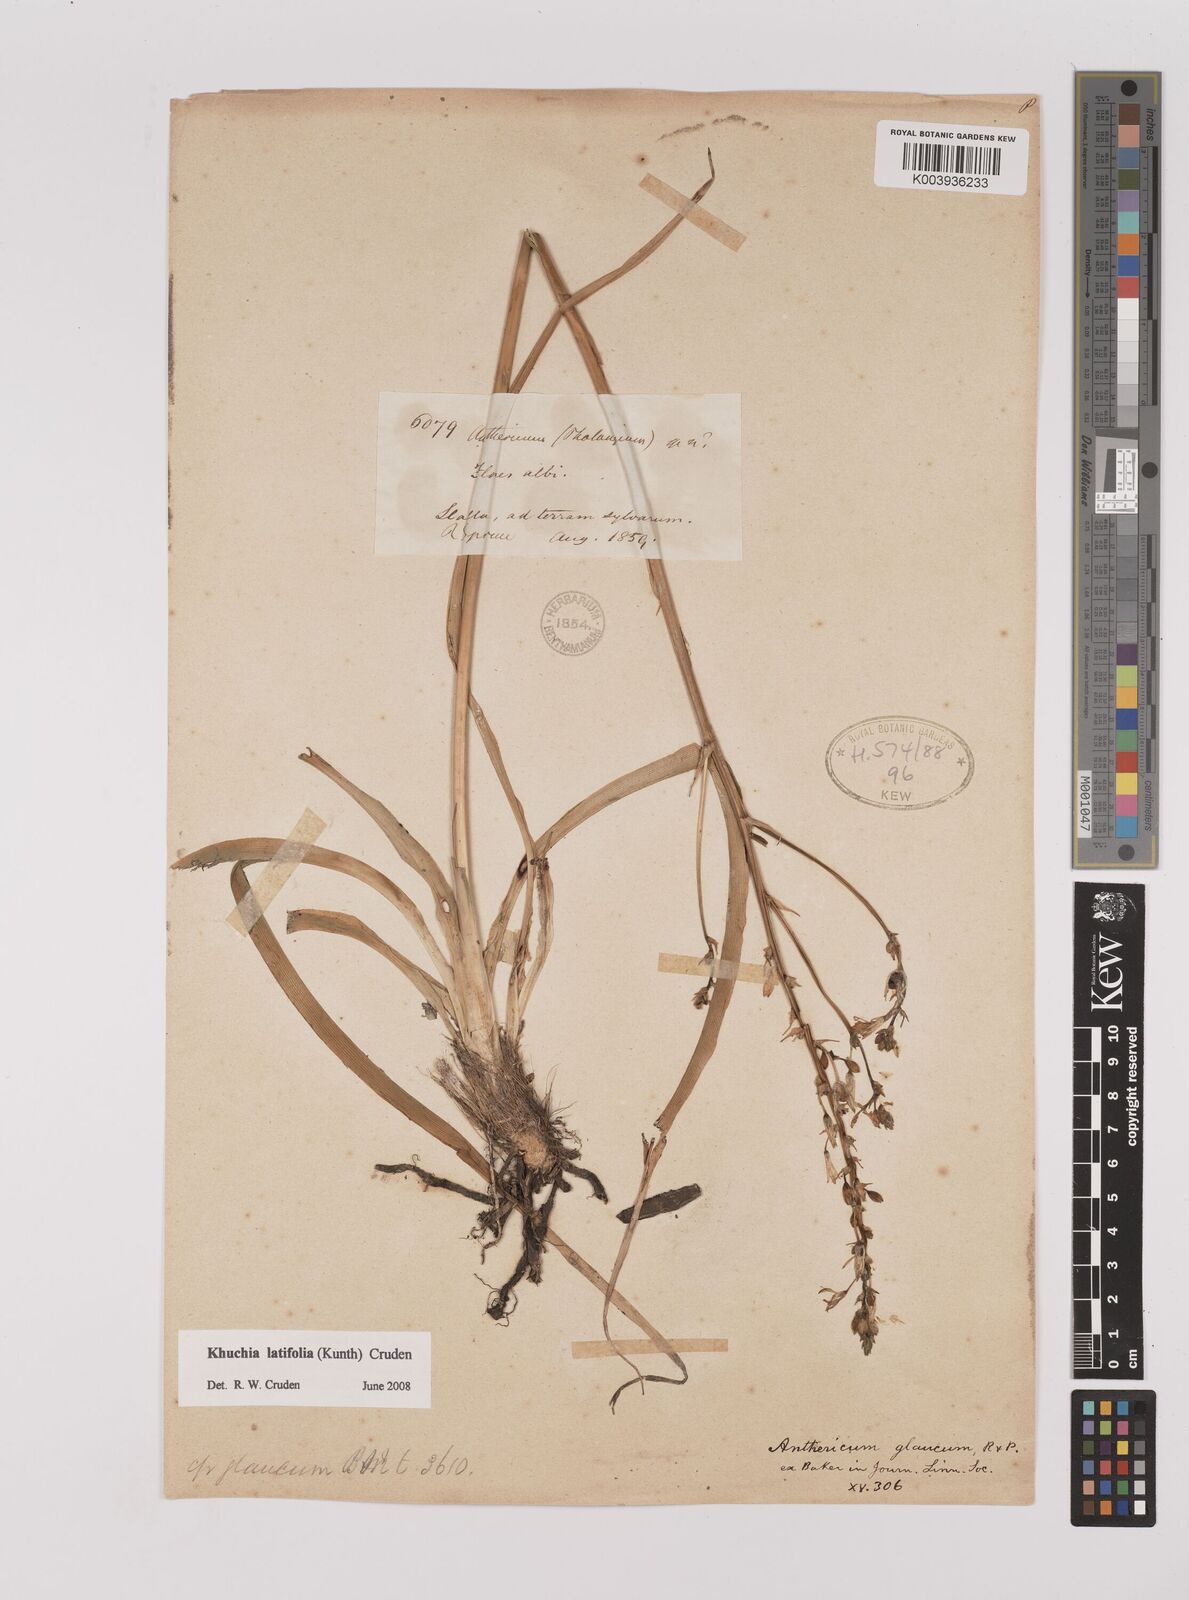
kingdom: Plantae
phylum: Tracheophyta
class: Liliopsida
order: Asparagales
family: Asparagaceae
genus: Echeandia
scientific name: Echeandia
